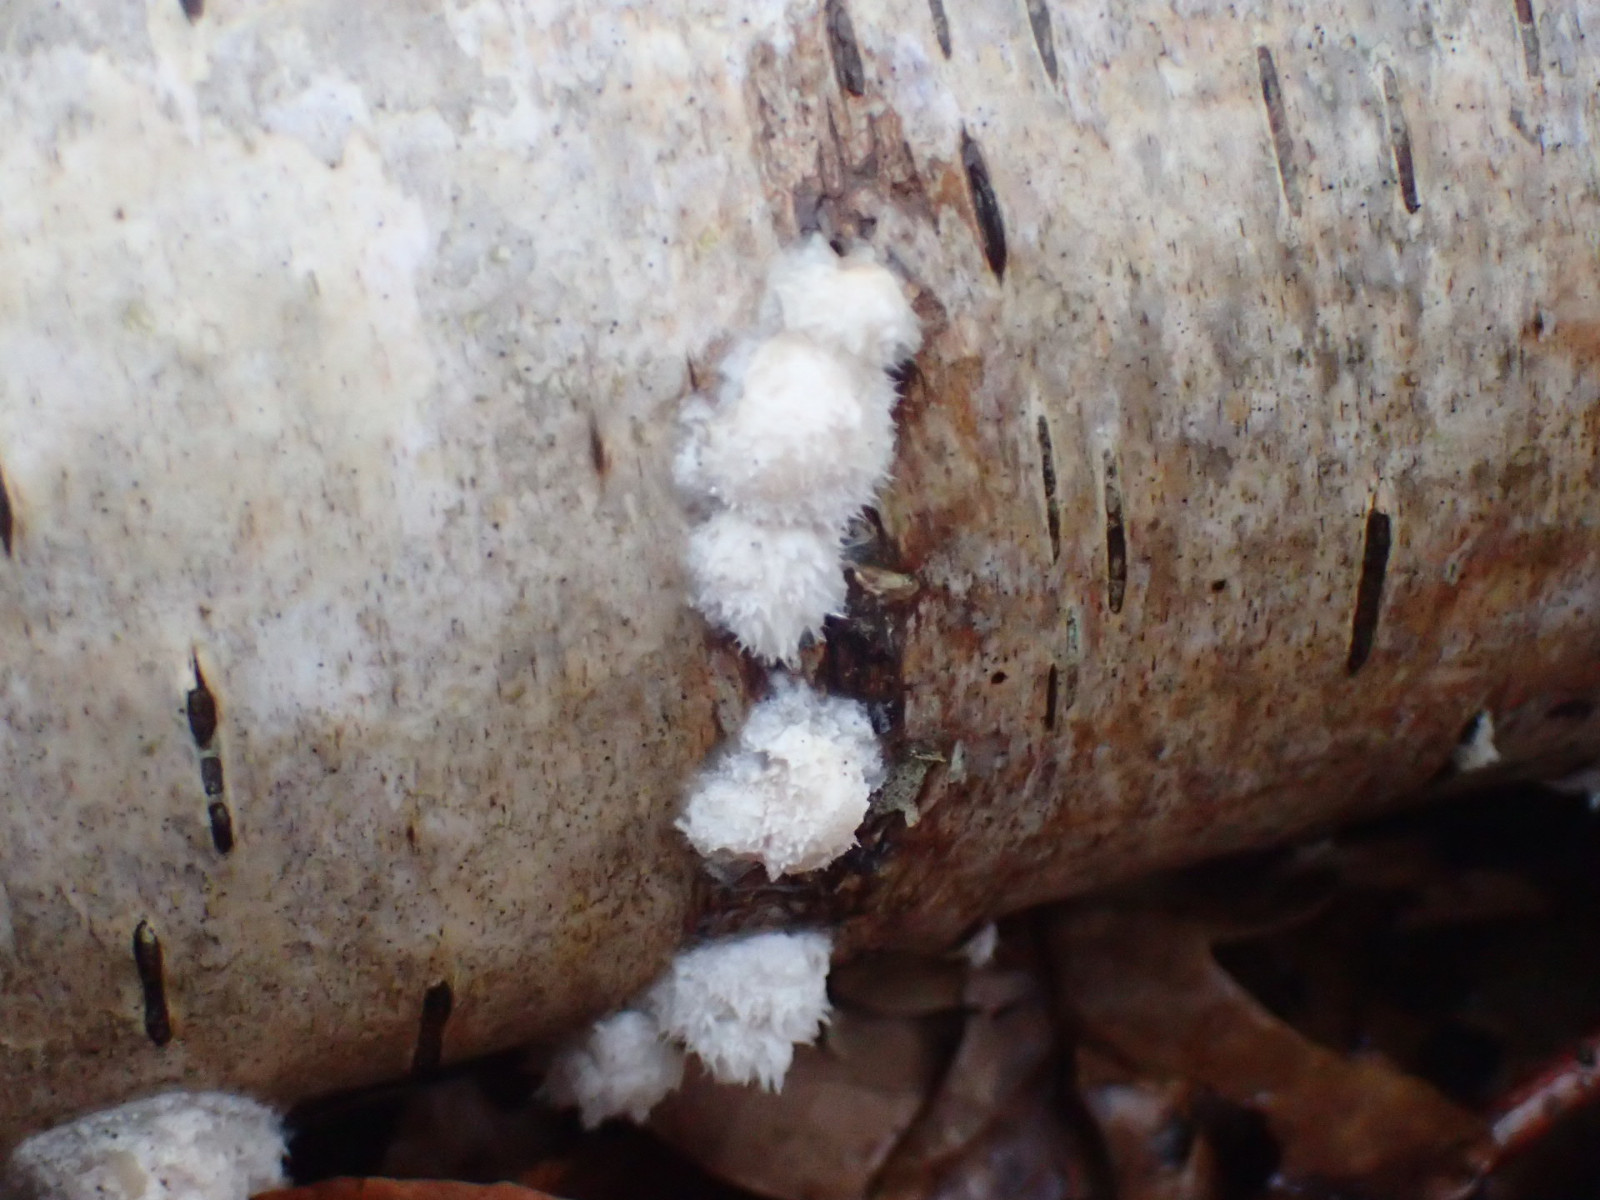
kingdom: Fungi
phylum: Basidiomycota
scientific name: Basidiomycota
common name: basidiesvampe
